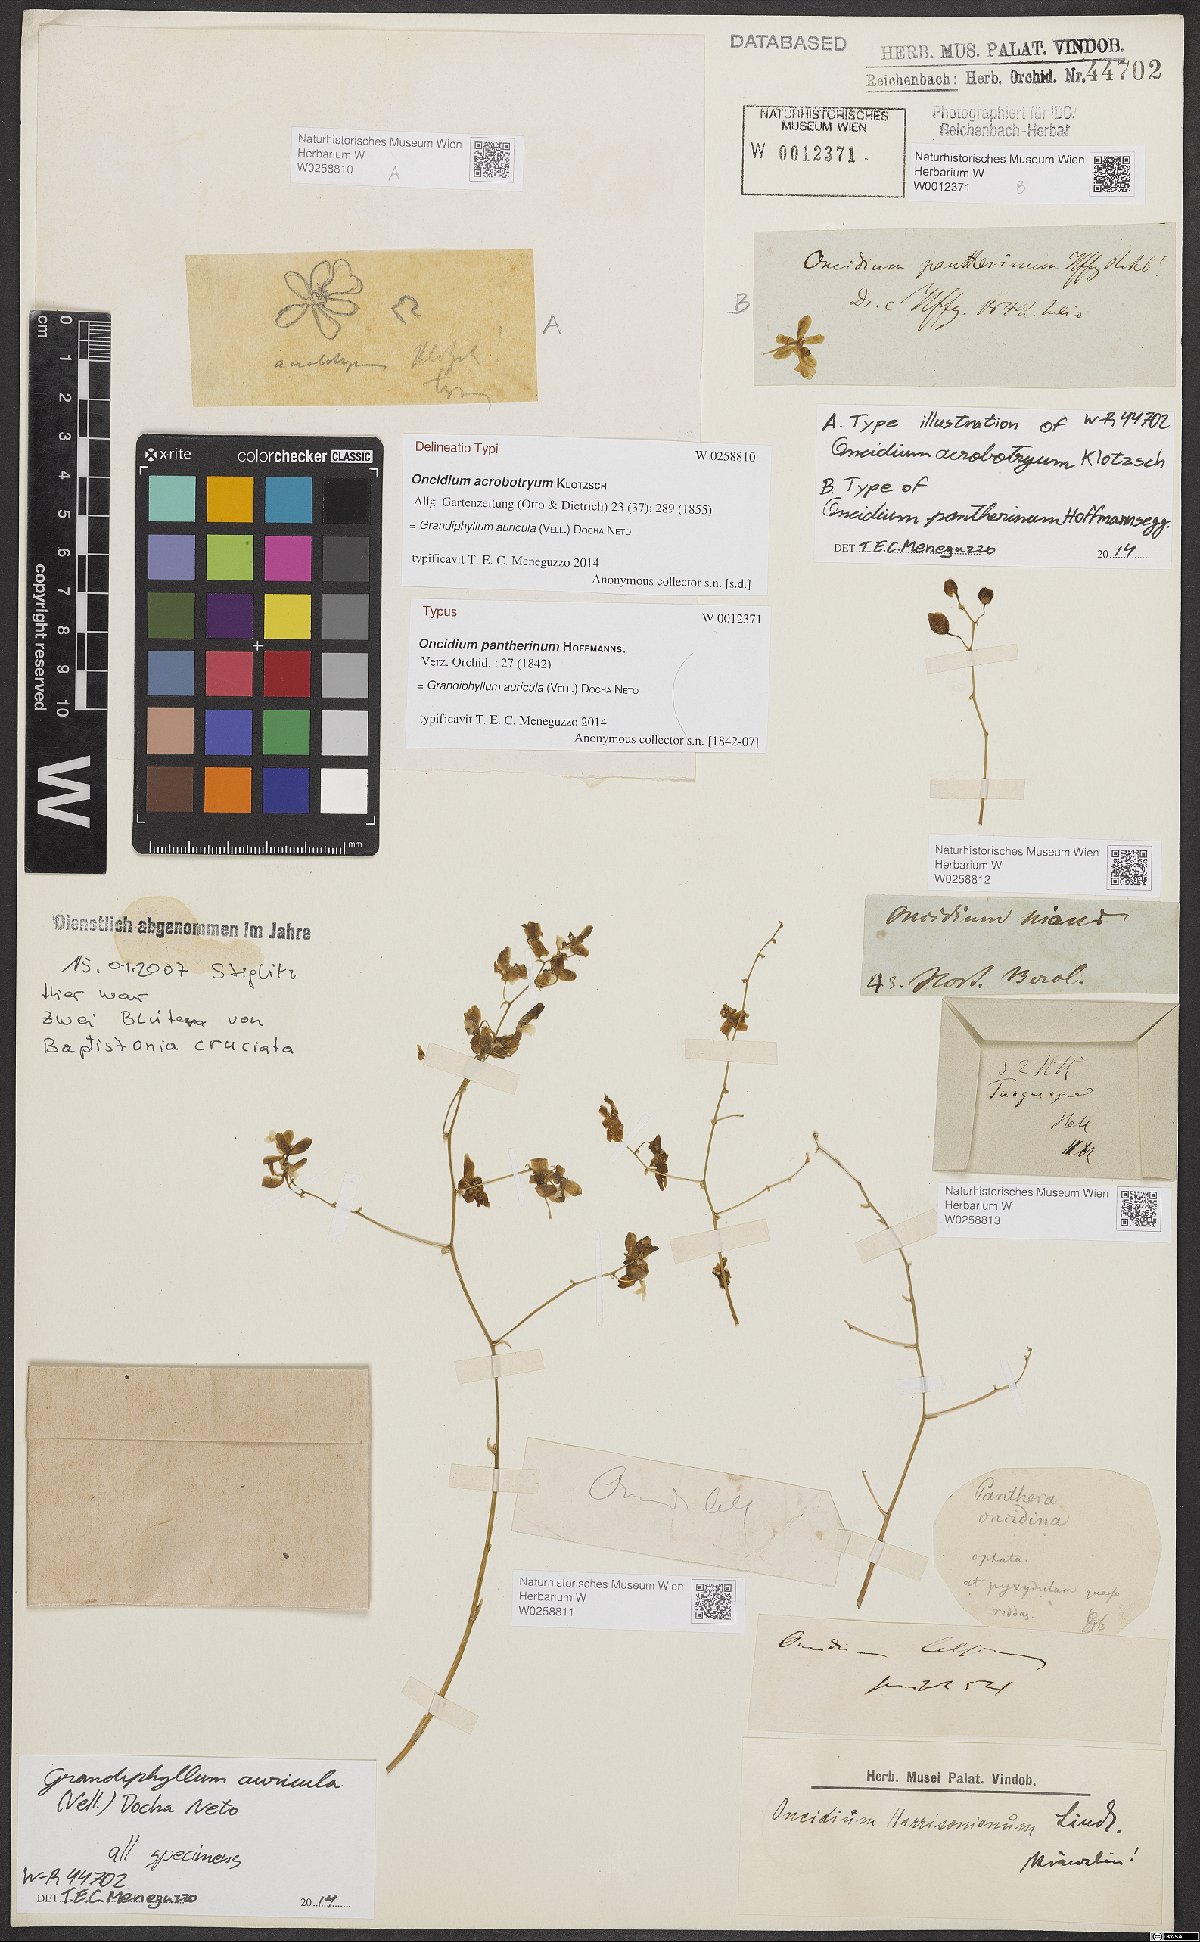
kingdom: Plantae
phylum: Tracheophyta
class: Liliopsida
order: Asparagales
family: Orchidaceae
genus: Grandiphyllum
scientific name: Grandiphyllum auricula
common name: Mule-ear orchid
